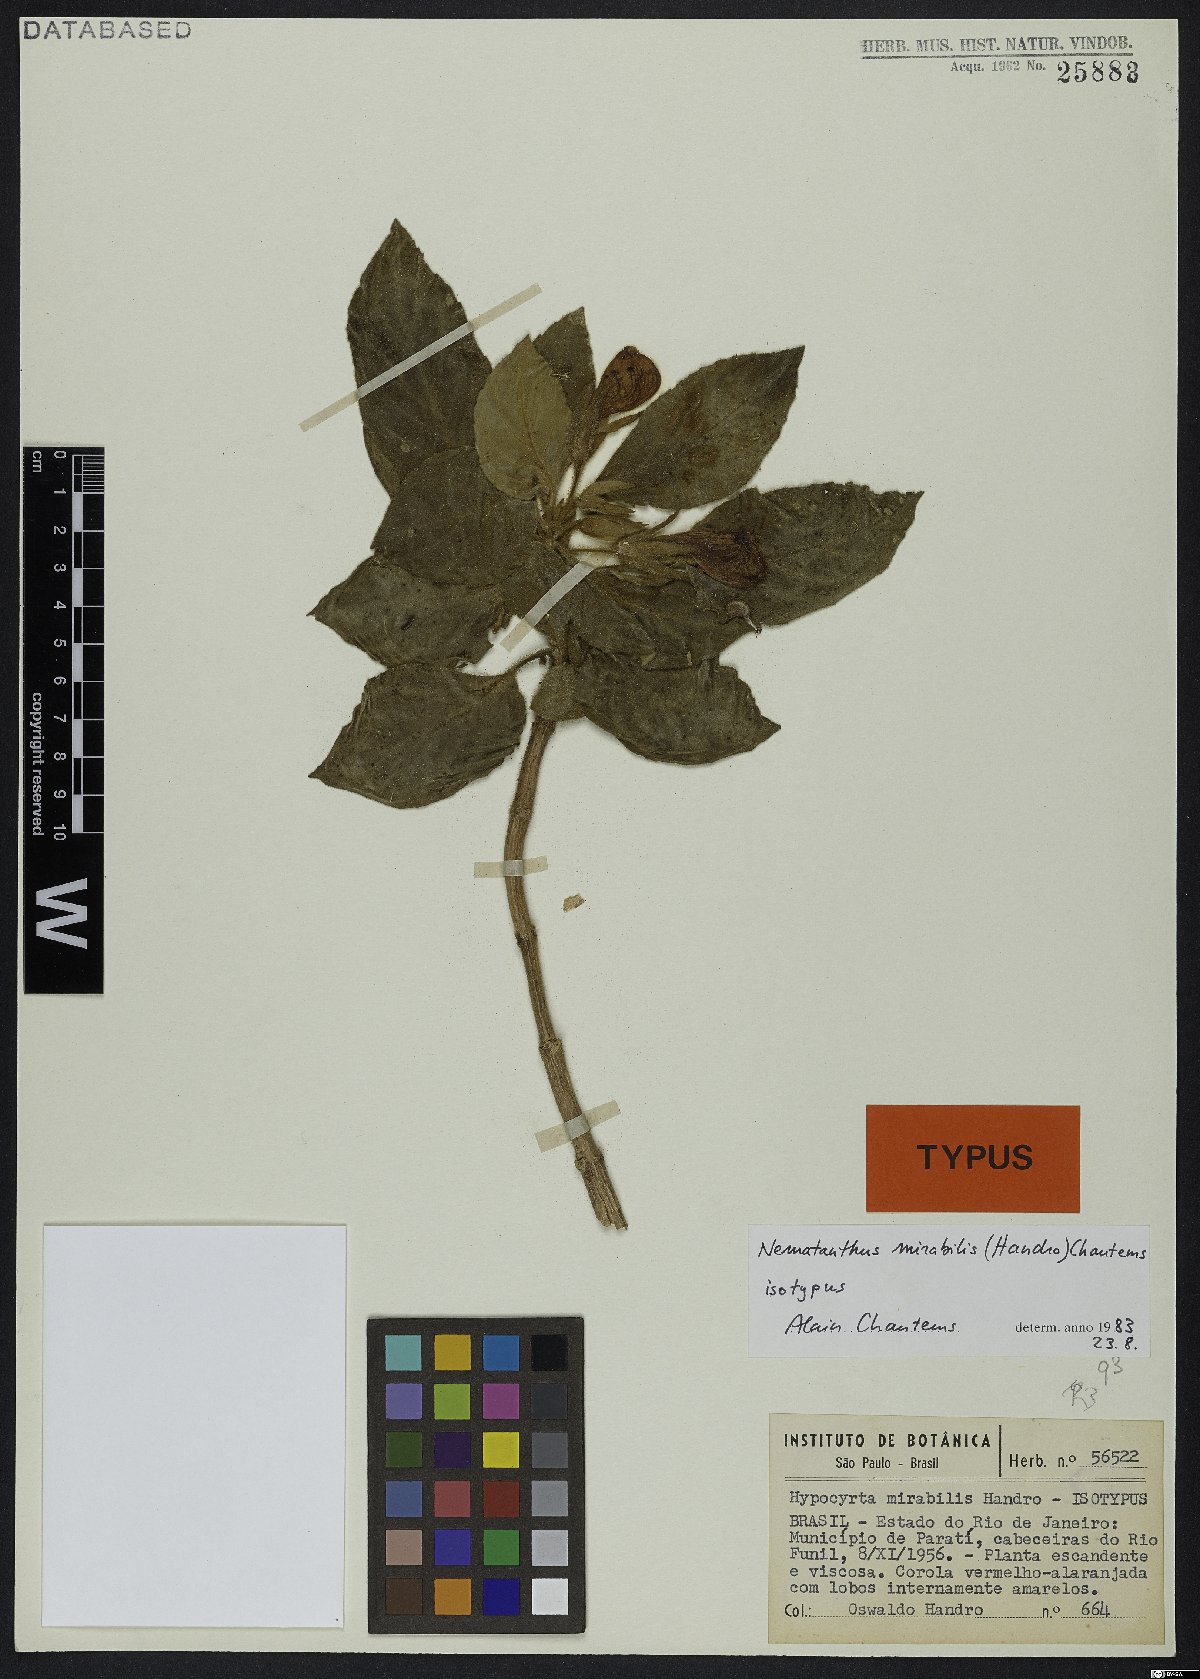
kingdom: Plantae
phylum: Tracheophyta
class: Magnoliopsida
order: Lamiales
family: Gesneriaceae
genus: Nematanthus
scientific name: Nematanthus mirabilis
